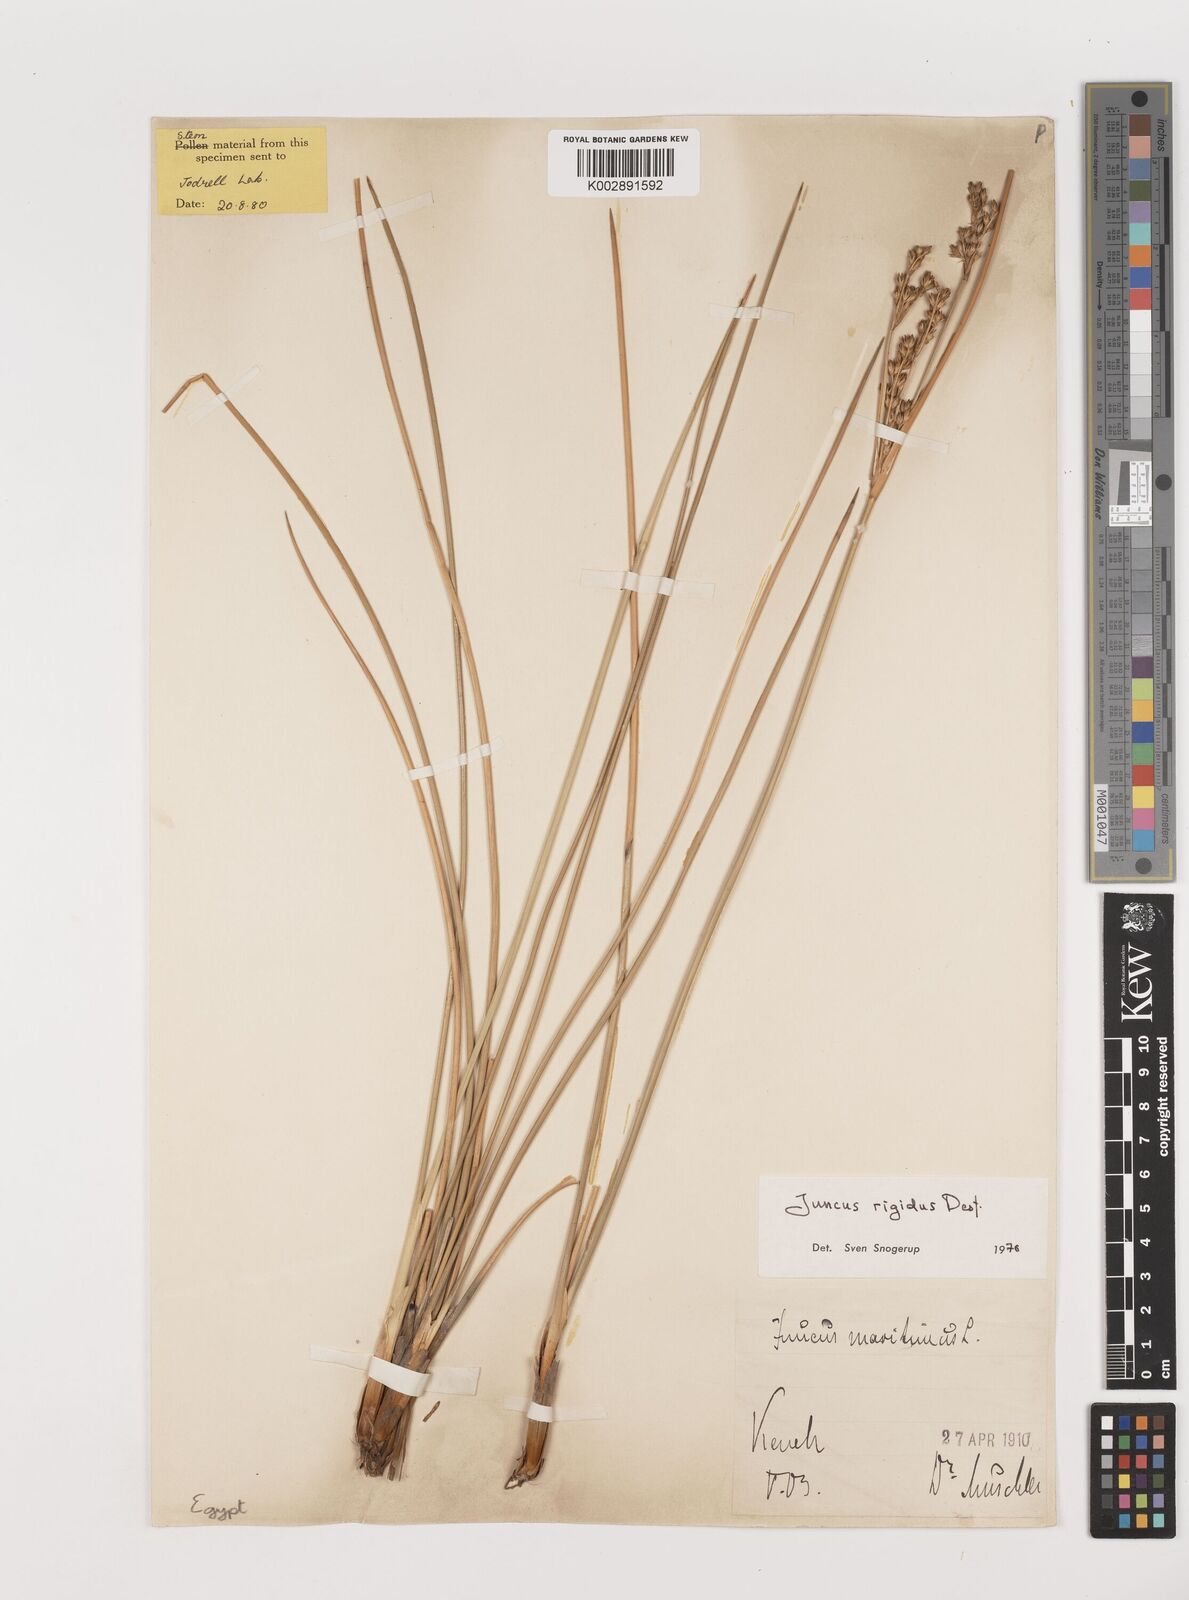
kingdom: Plantae
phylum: Tracheophyta
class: Liliopsida
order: Poales
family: Juncaceae
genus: Juncus
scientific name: Juncus rigidus
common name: Hard sea rush
